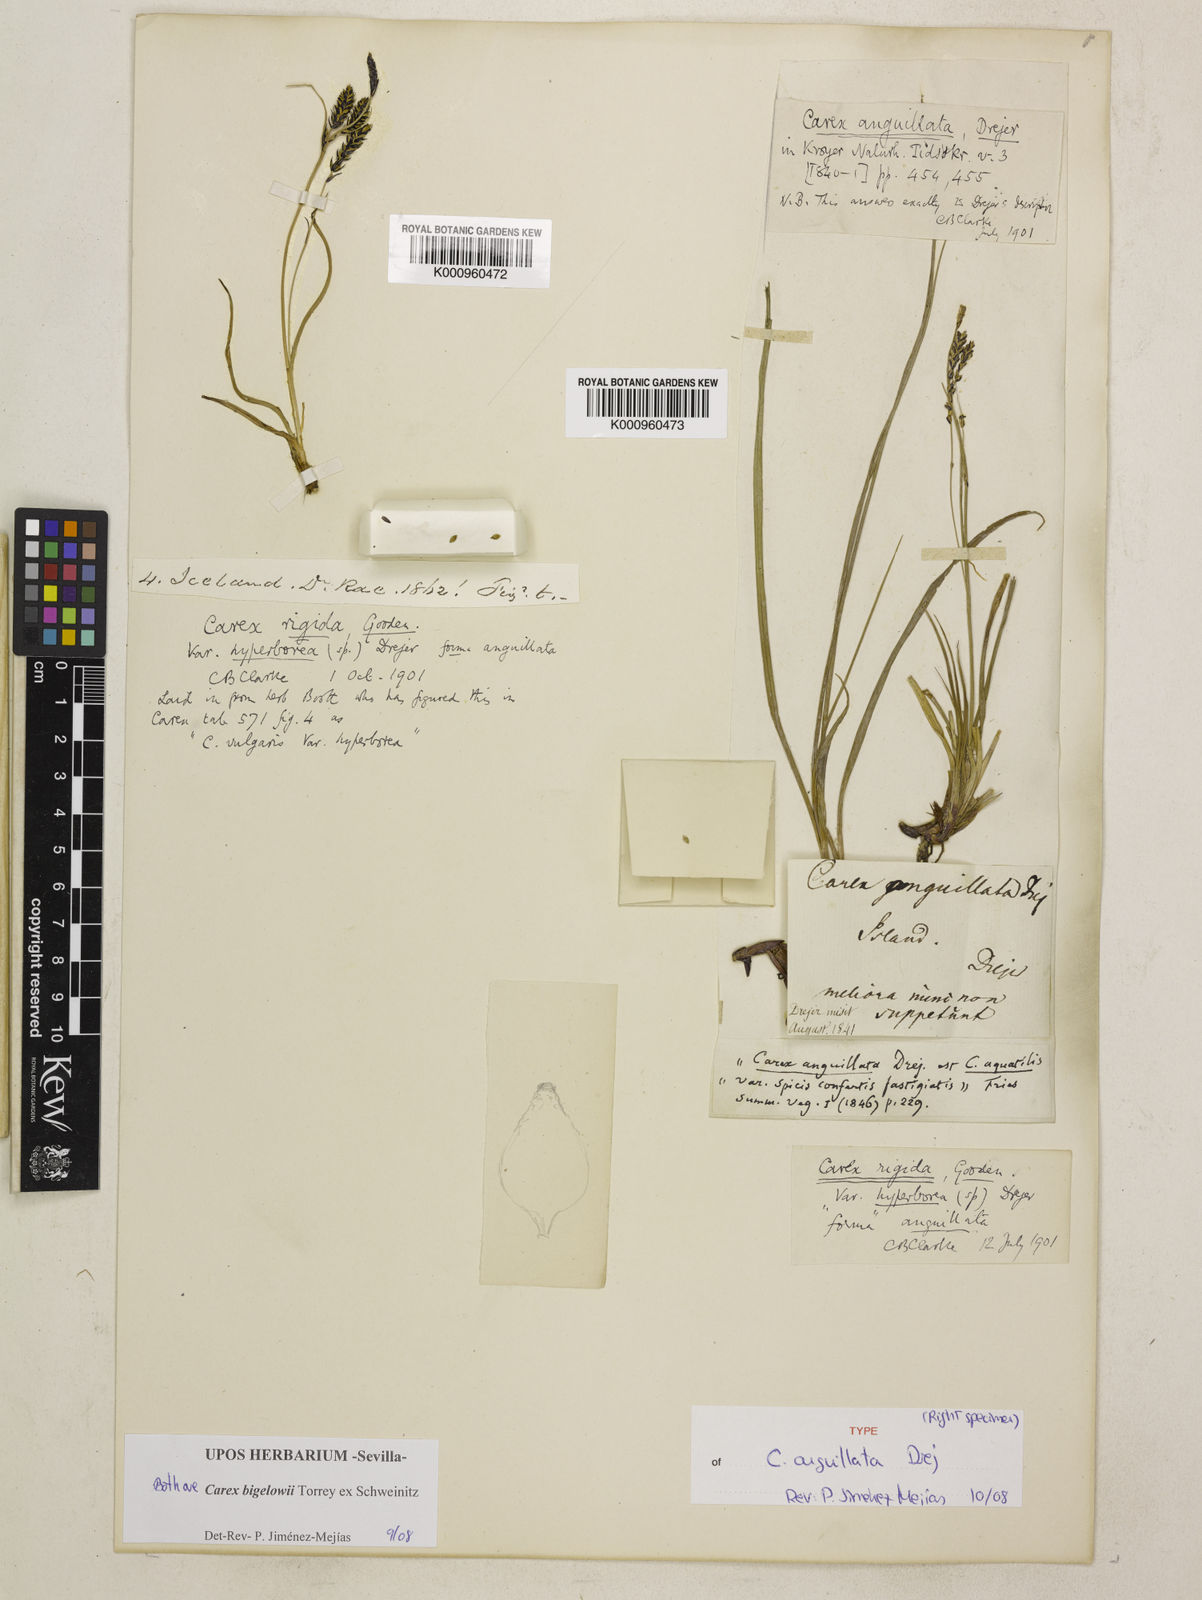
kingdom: Plantae
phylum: Tracheophyta
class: Liliopsida
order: Poales
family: Cyperaceae
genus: Carex
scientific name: Carex bigelowii
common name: Stiff sedge
